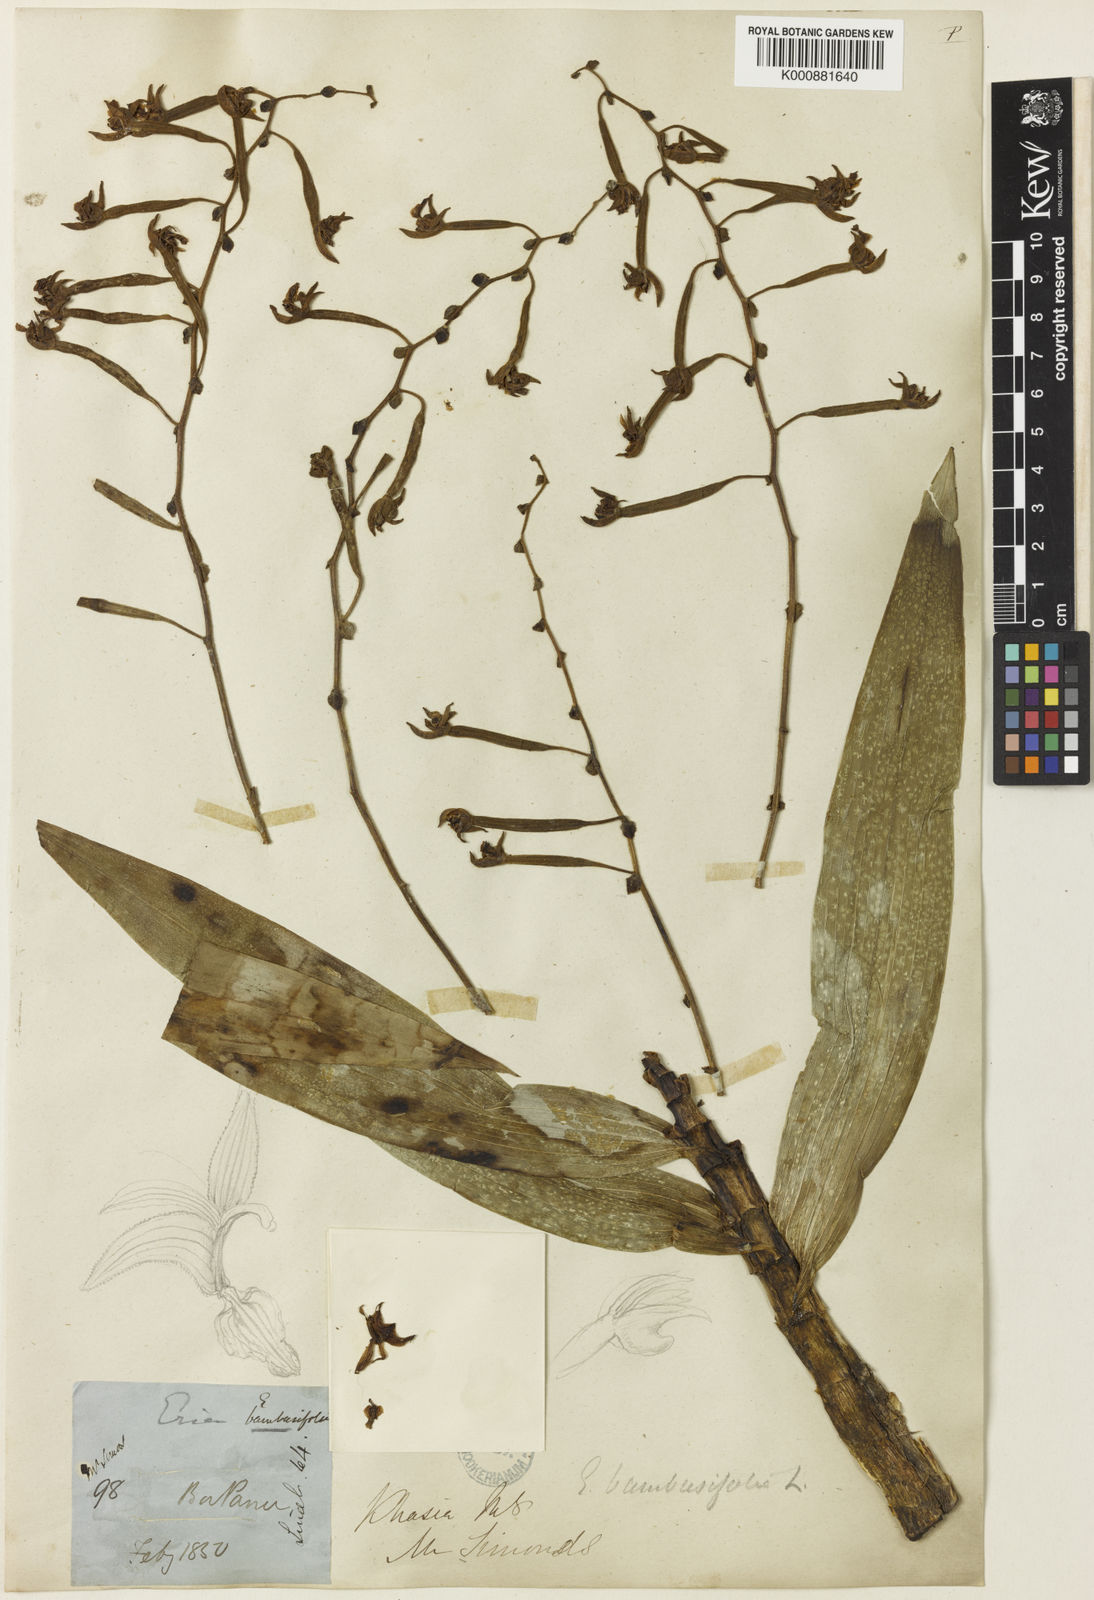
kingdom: Plantae
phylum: Tracheophyta
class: Liliopsida
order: Asparagales
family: Orchidaceae
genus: Bambuseria
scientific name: Bambuseria bambusifolia
